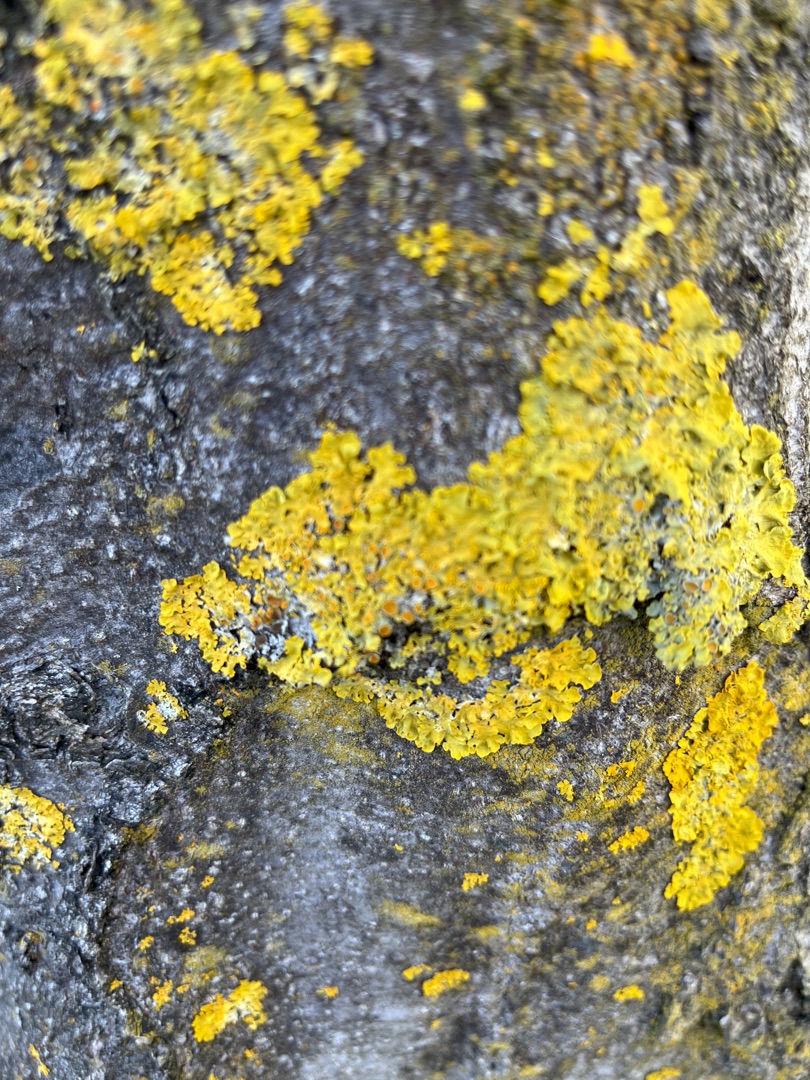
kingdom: Fungi
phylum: Ascomycota
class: Lecanoromycetes
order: Teloschistales
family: Teloschistaceae
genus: Xanthoria
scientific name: Xanthoria parietina
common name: Almindelig væggelav
